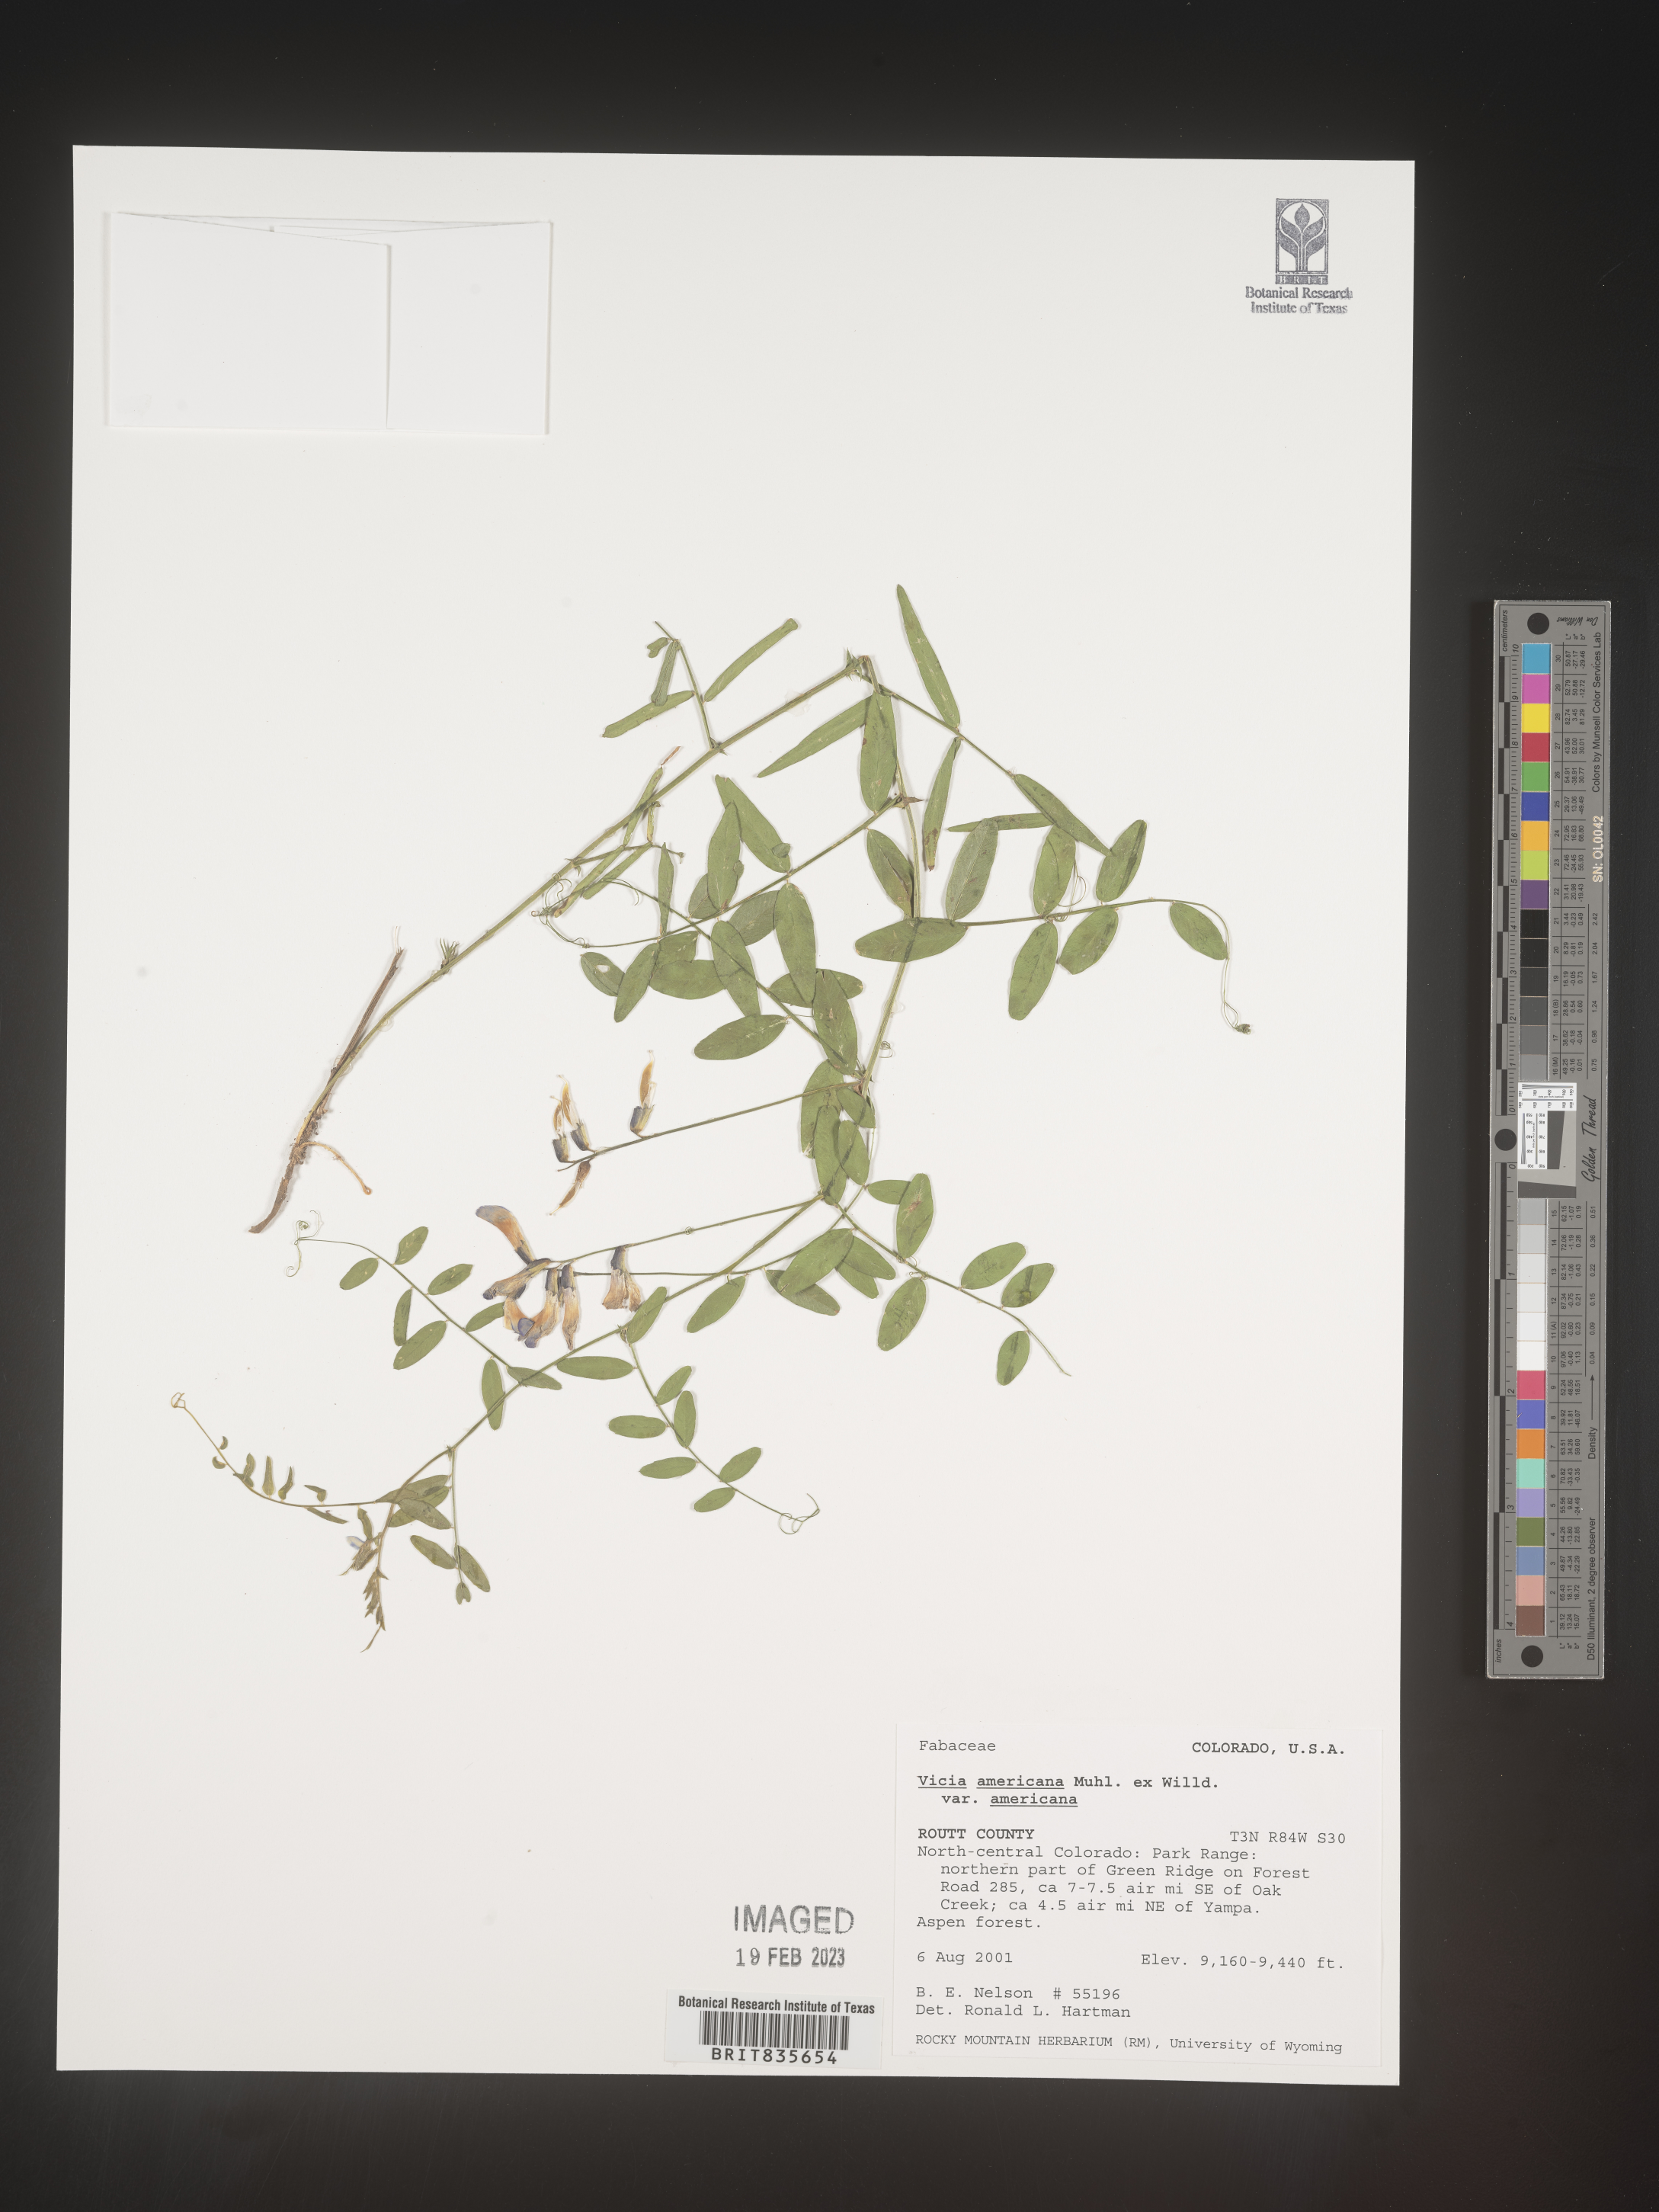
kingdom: Plantae
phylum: Tracheophyta
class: Magnoliopsida
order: Fabales
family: Fabaceae
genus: Vicia
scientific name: Vicia americana
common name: American vetch
